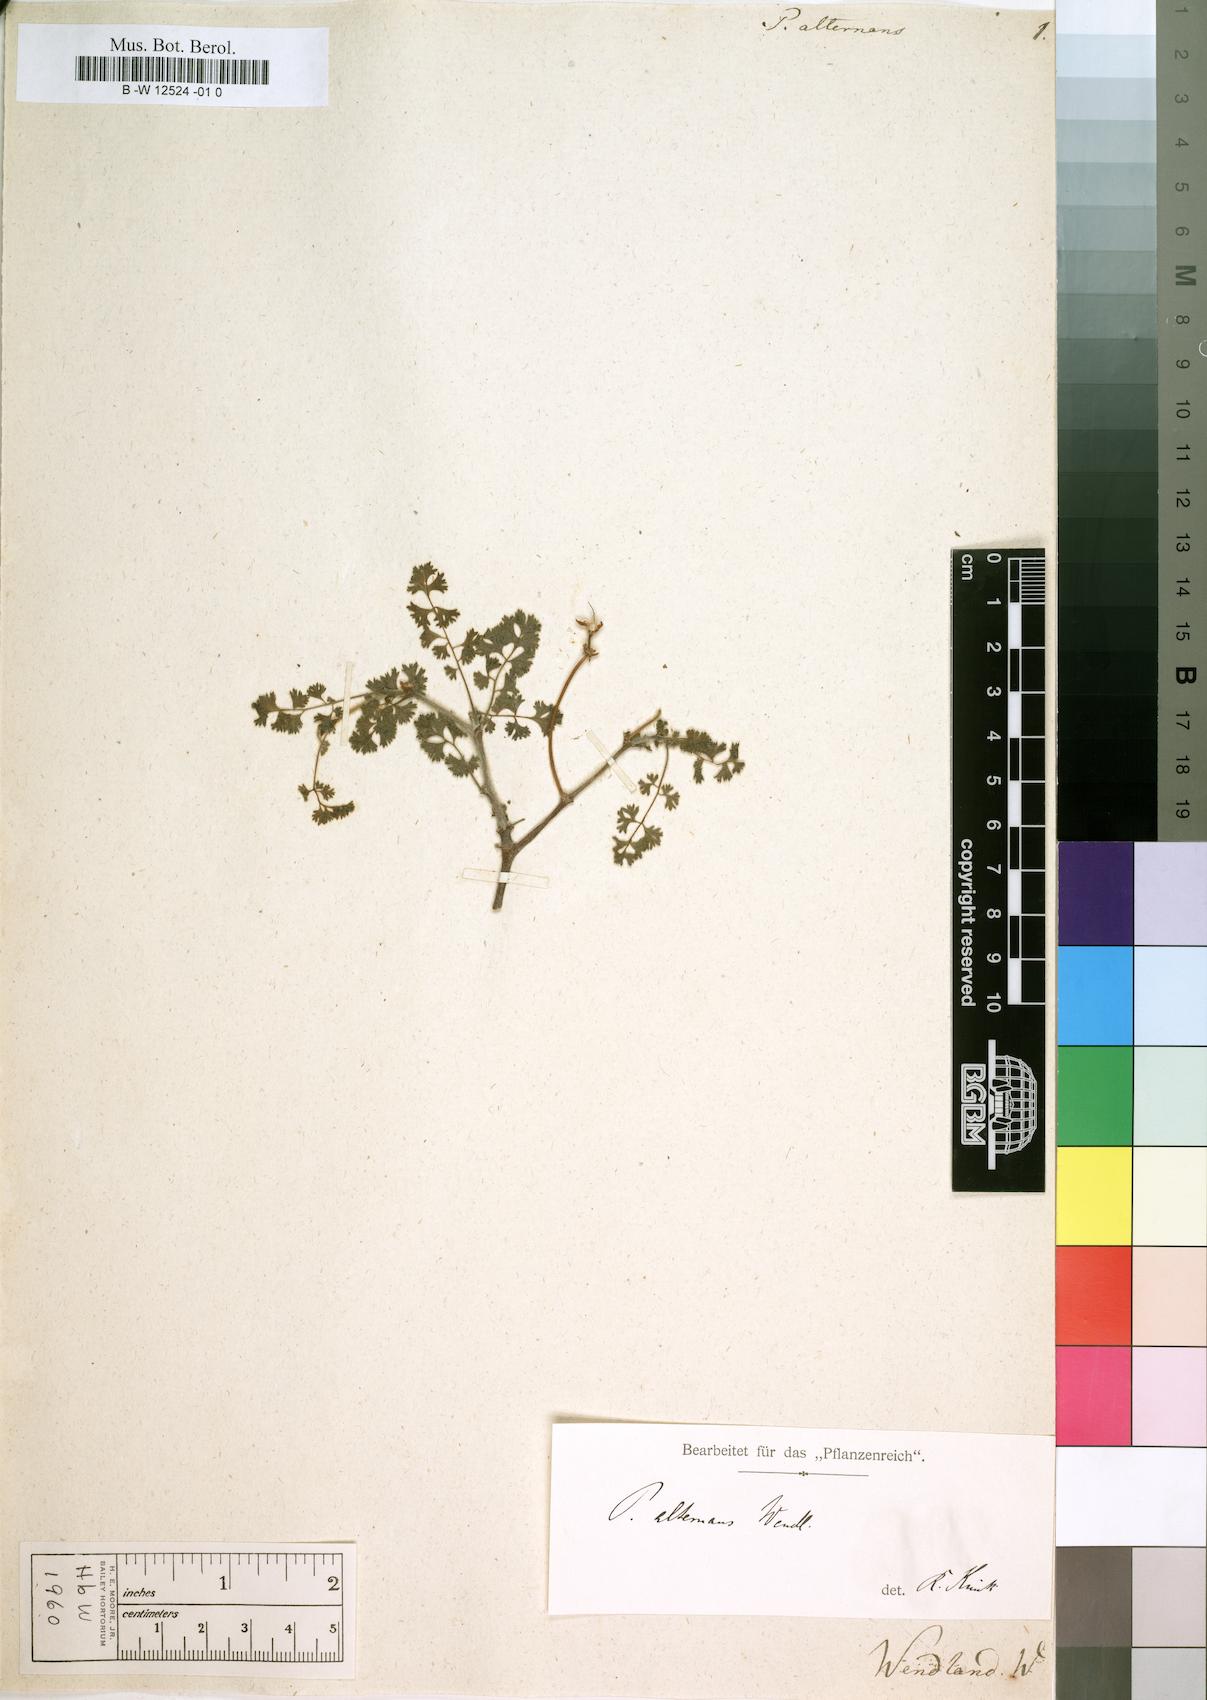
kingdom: Plantae
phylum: Tracheophyta
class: Magnoliopsida
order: Geraniales
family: Geraniaceae
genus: Pelargonium
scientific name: Pelargonium alternans
